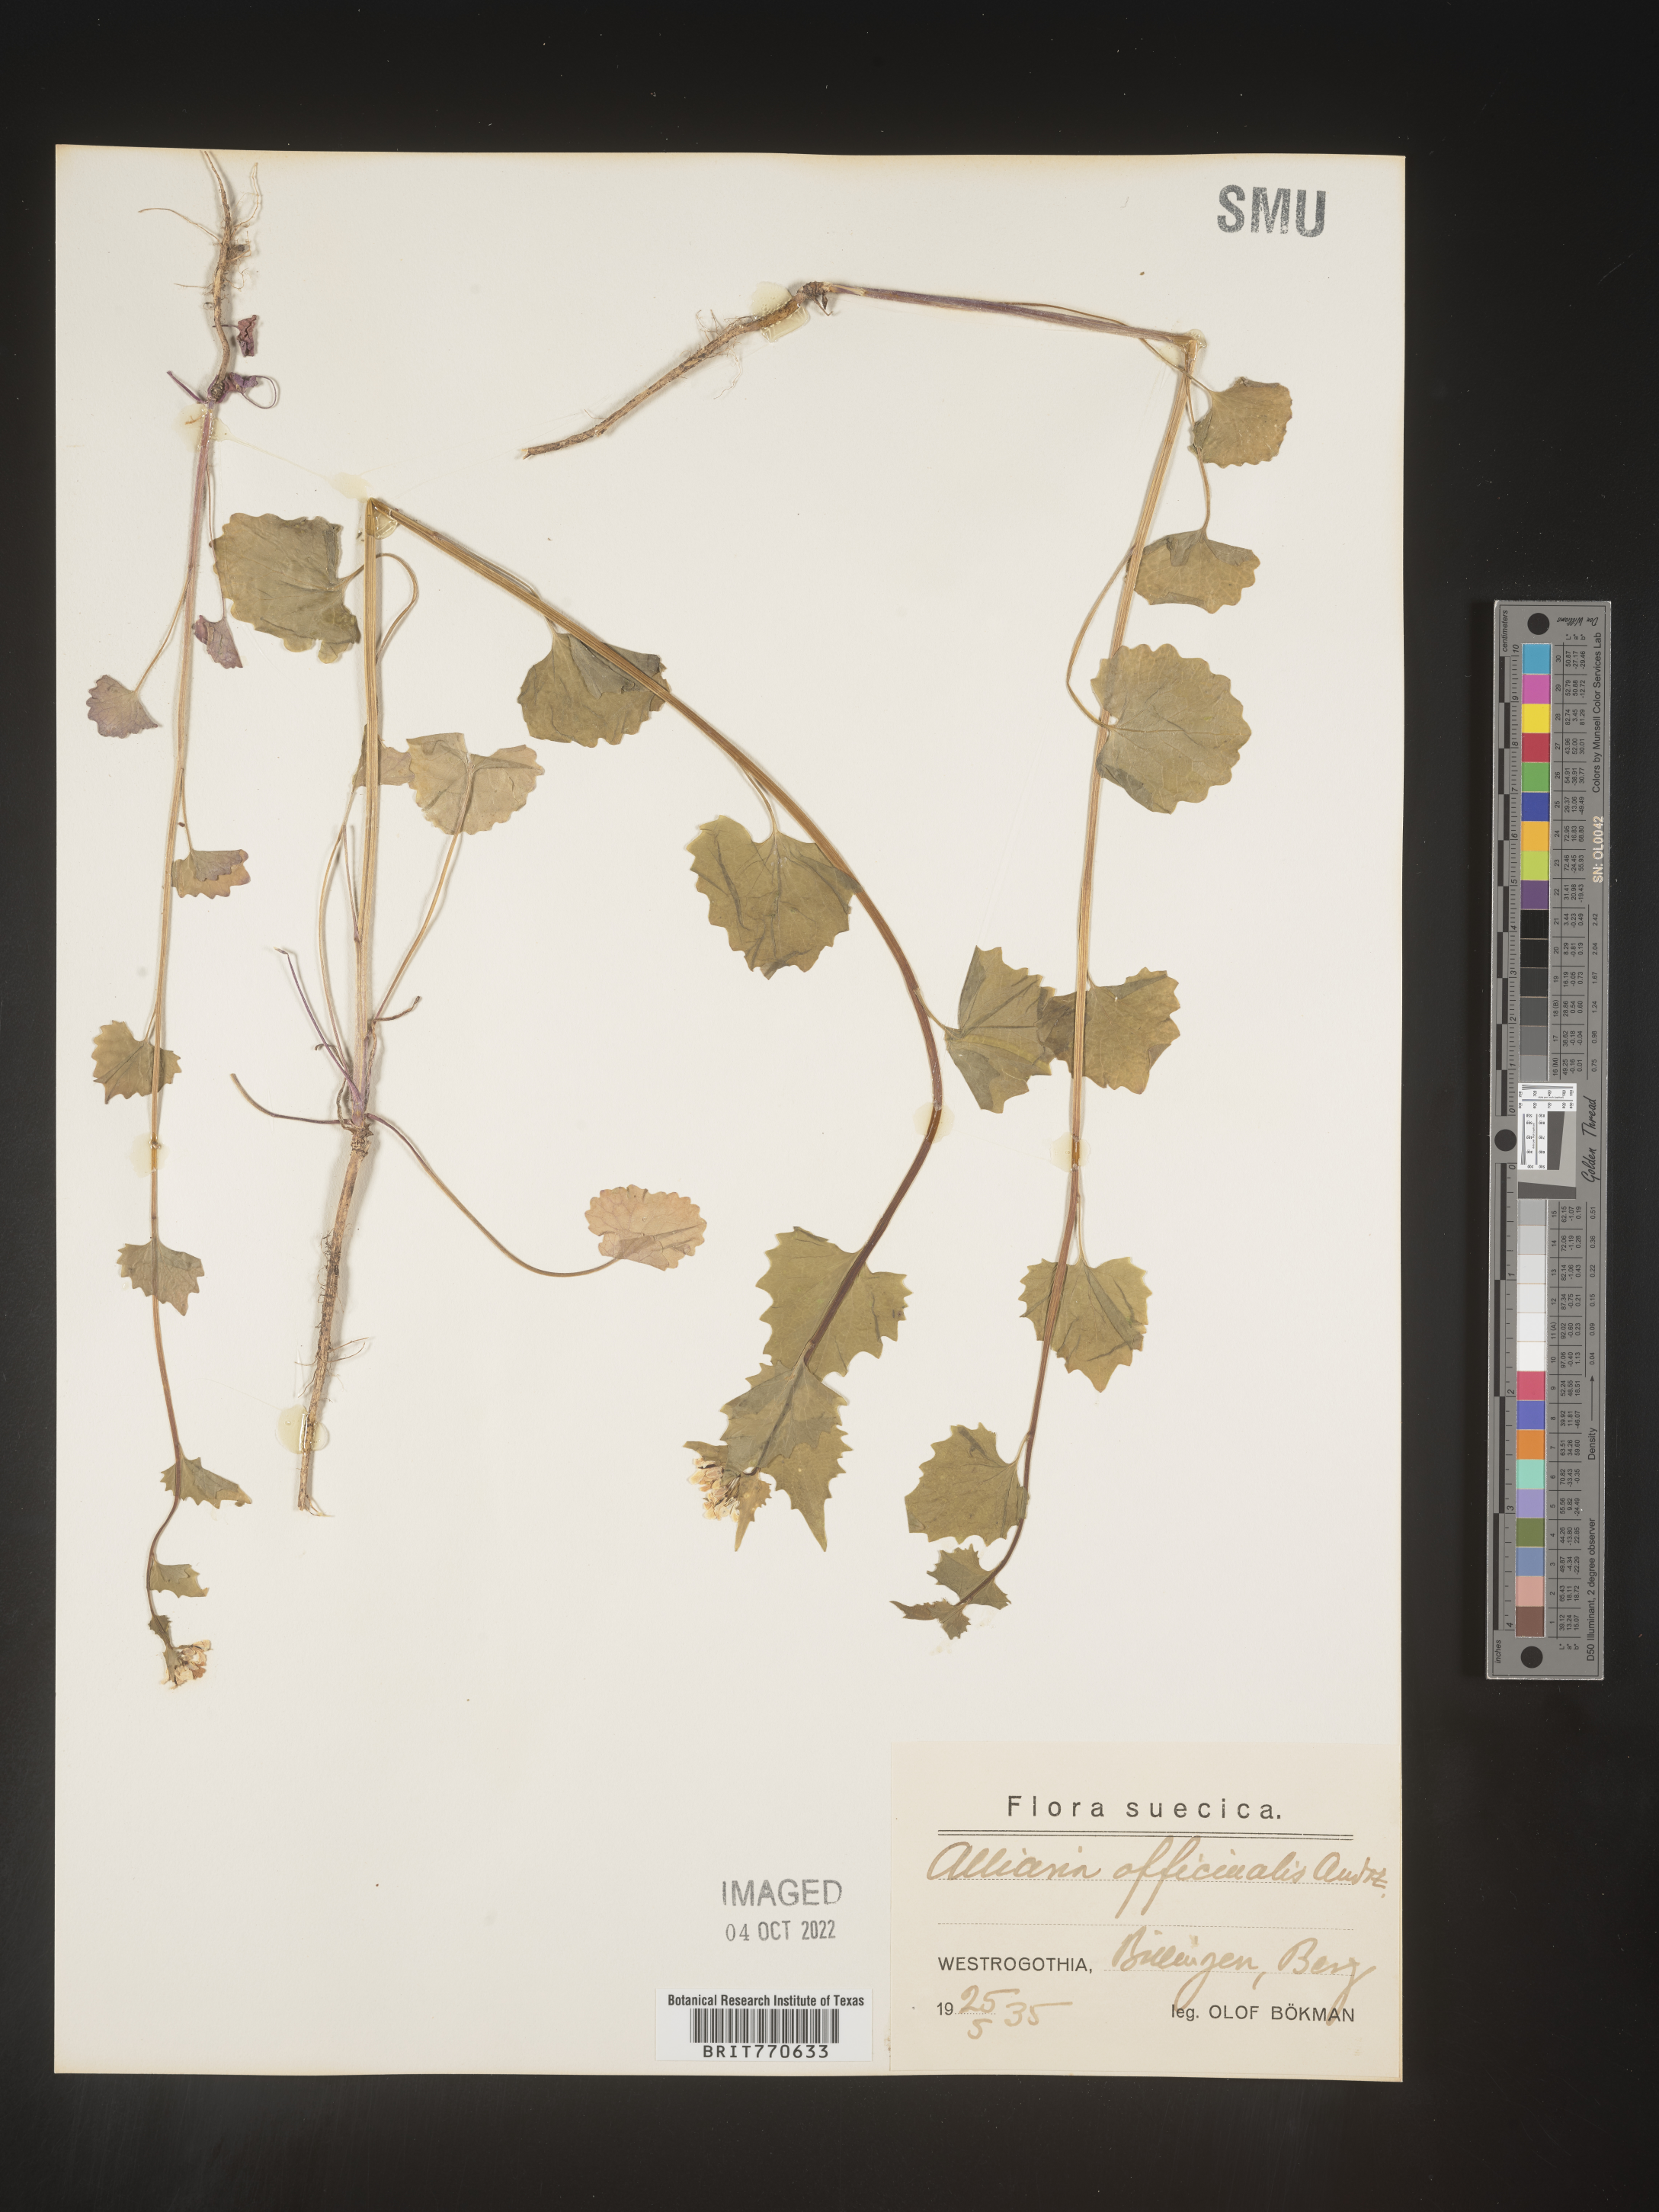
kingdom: Plantae
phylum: Tracheophyta
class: Magnoliopsida
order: Brassicales
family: Brassicaceae
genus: Alliaria
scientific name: Alliaria
